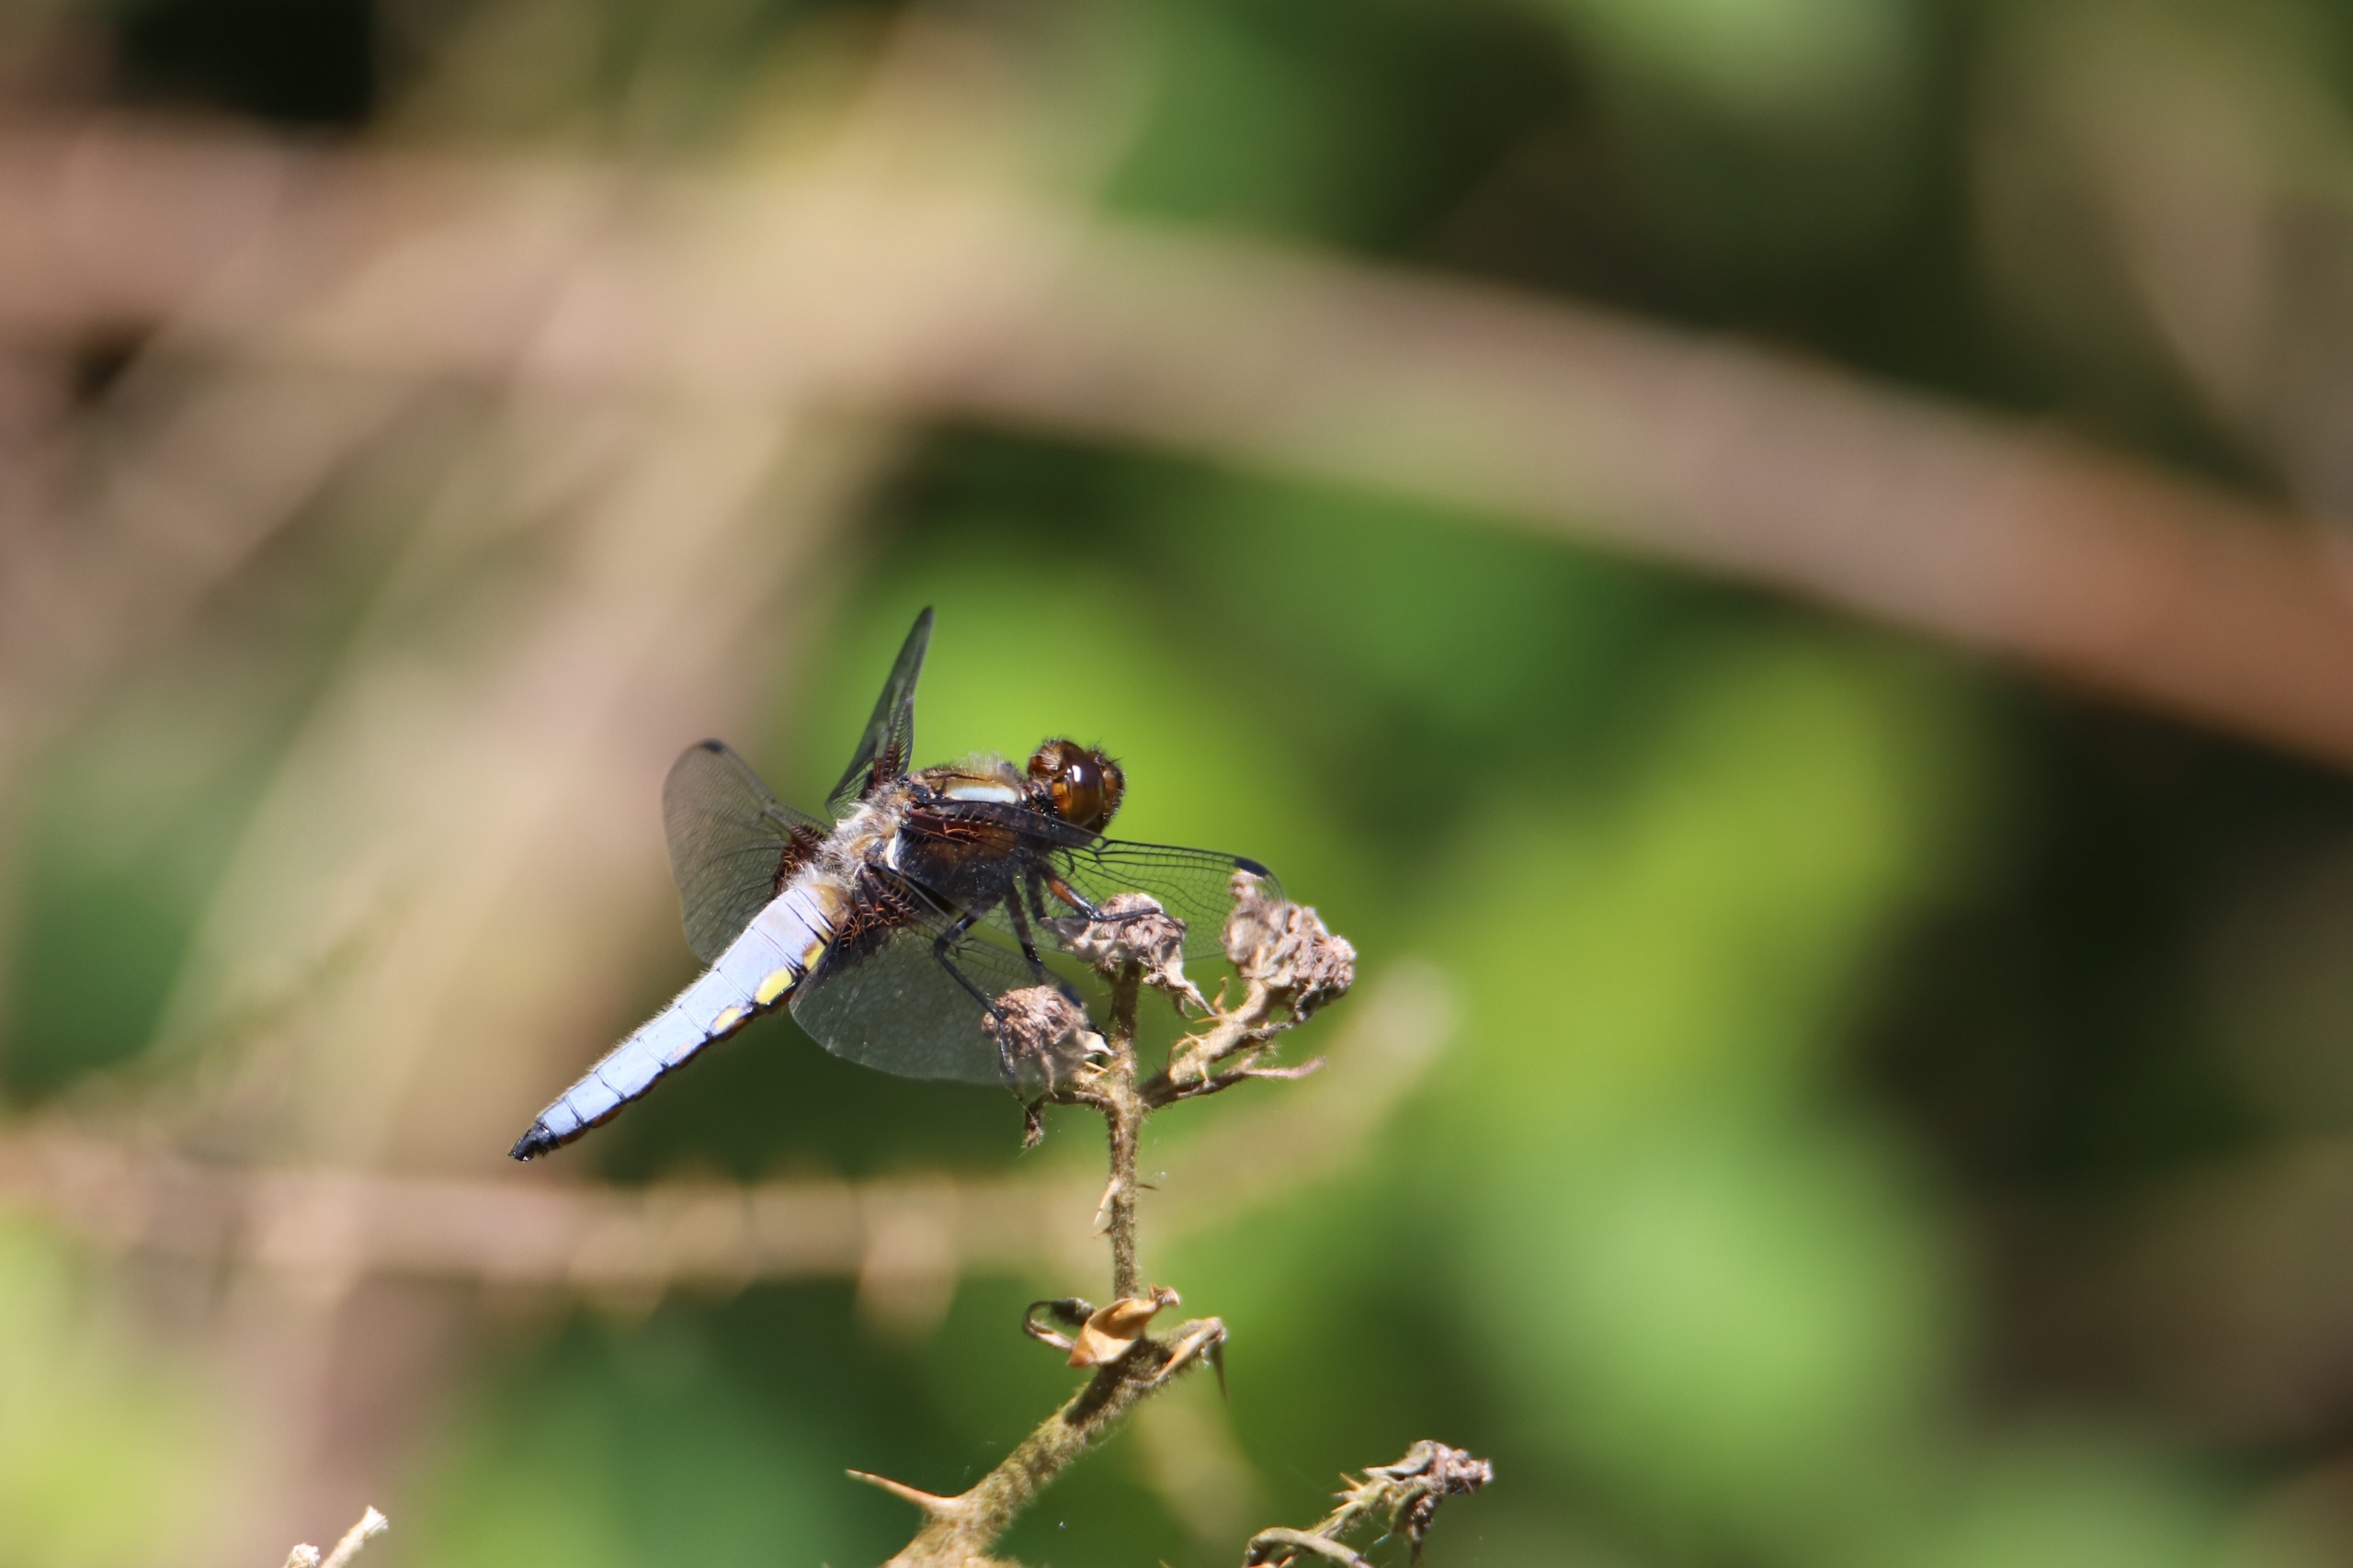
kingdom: Animalia
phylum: Arthropoda
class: Insecta
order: Odonata
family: Libellulidae
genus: Libellula
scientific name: Libellula depressa
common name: Blå libel
